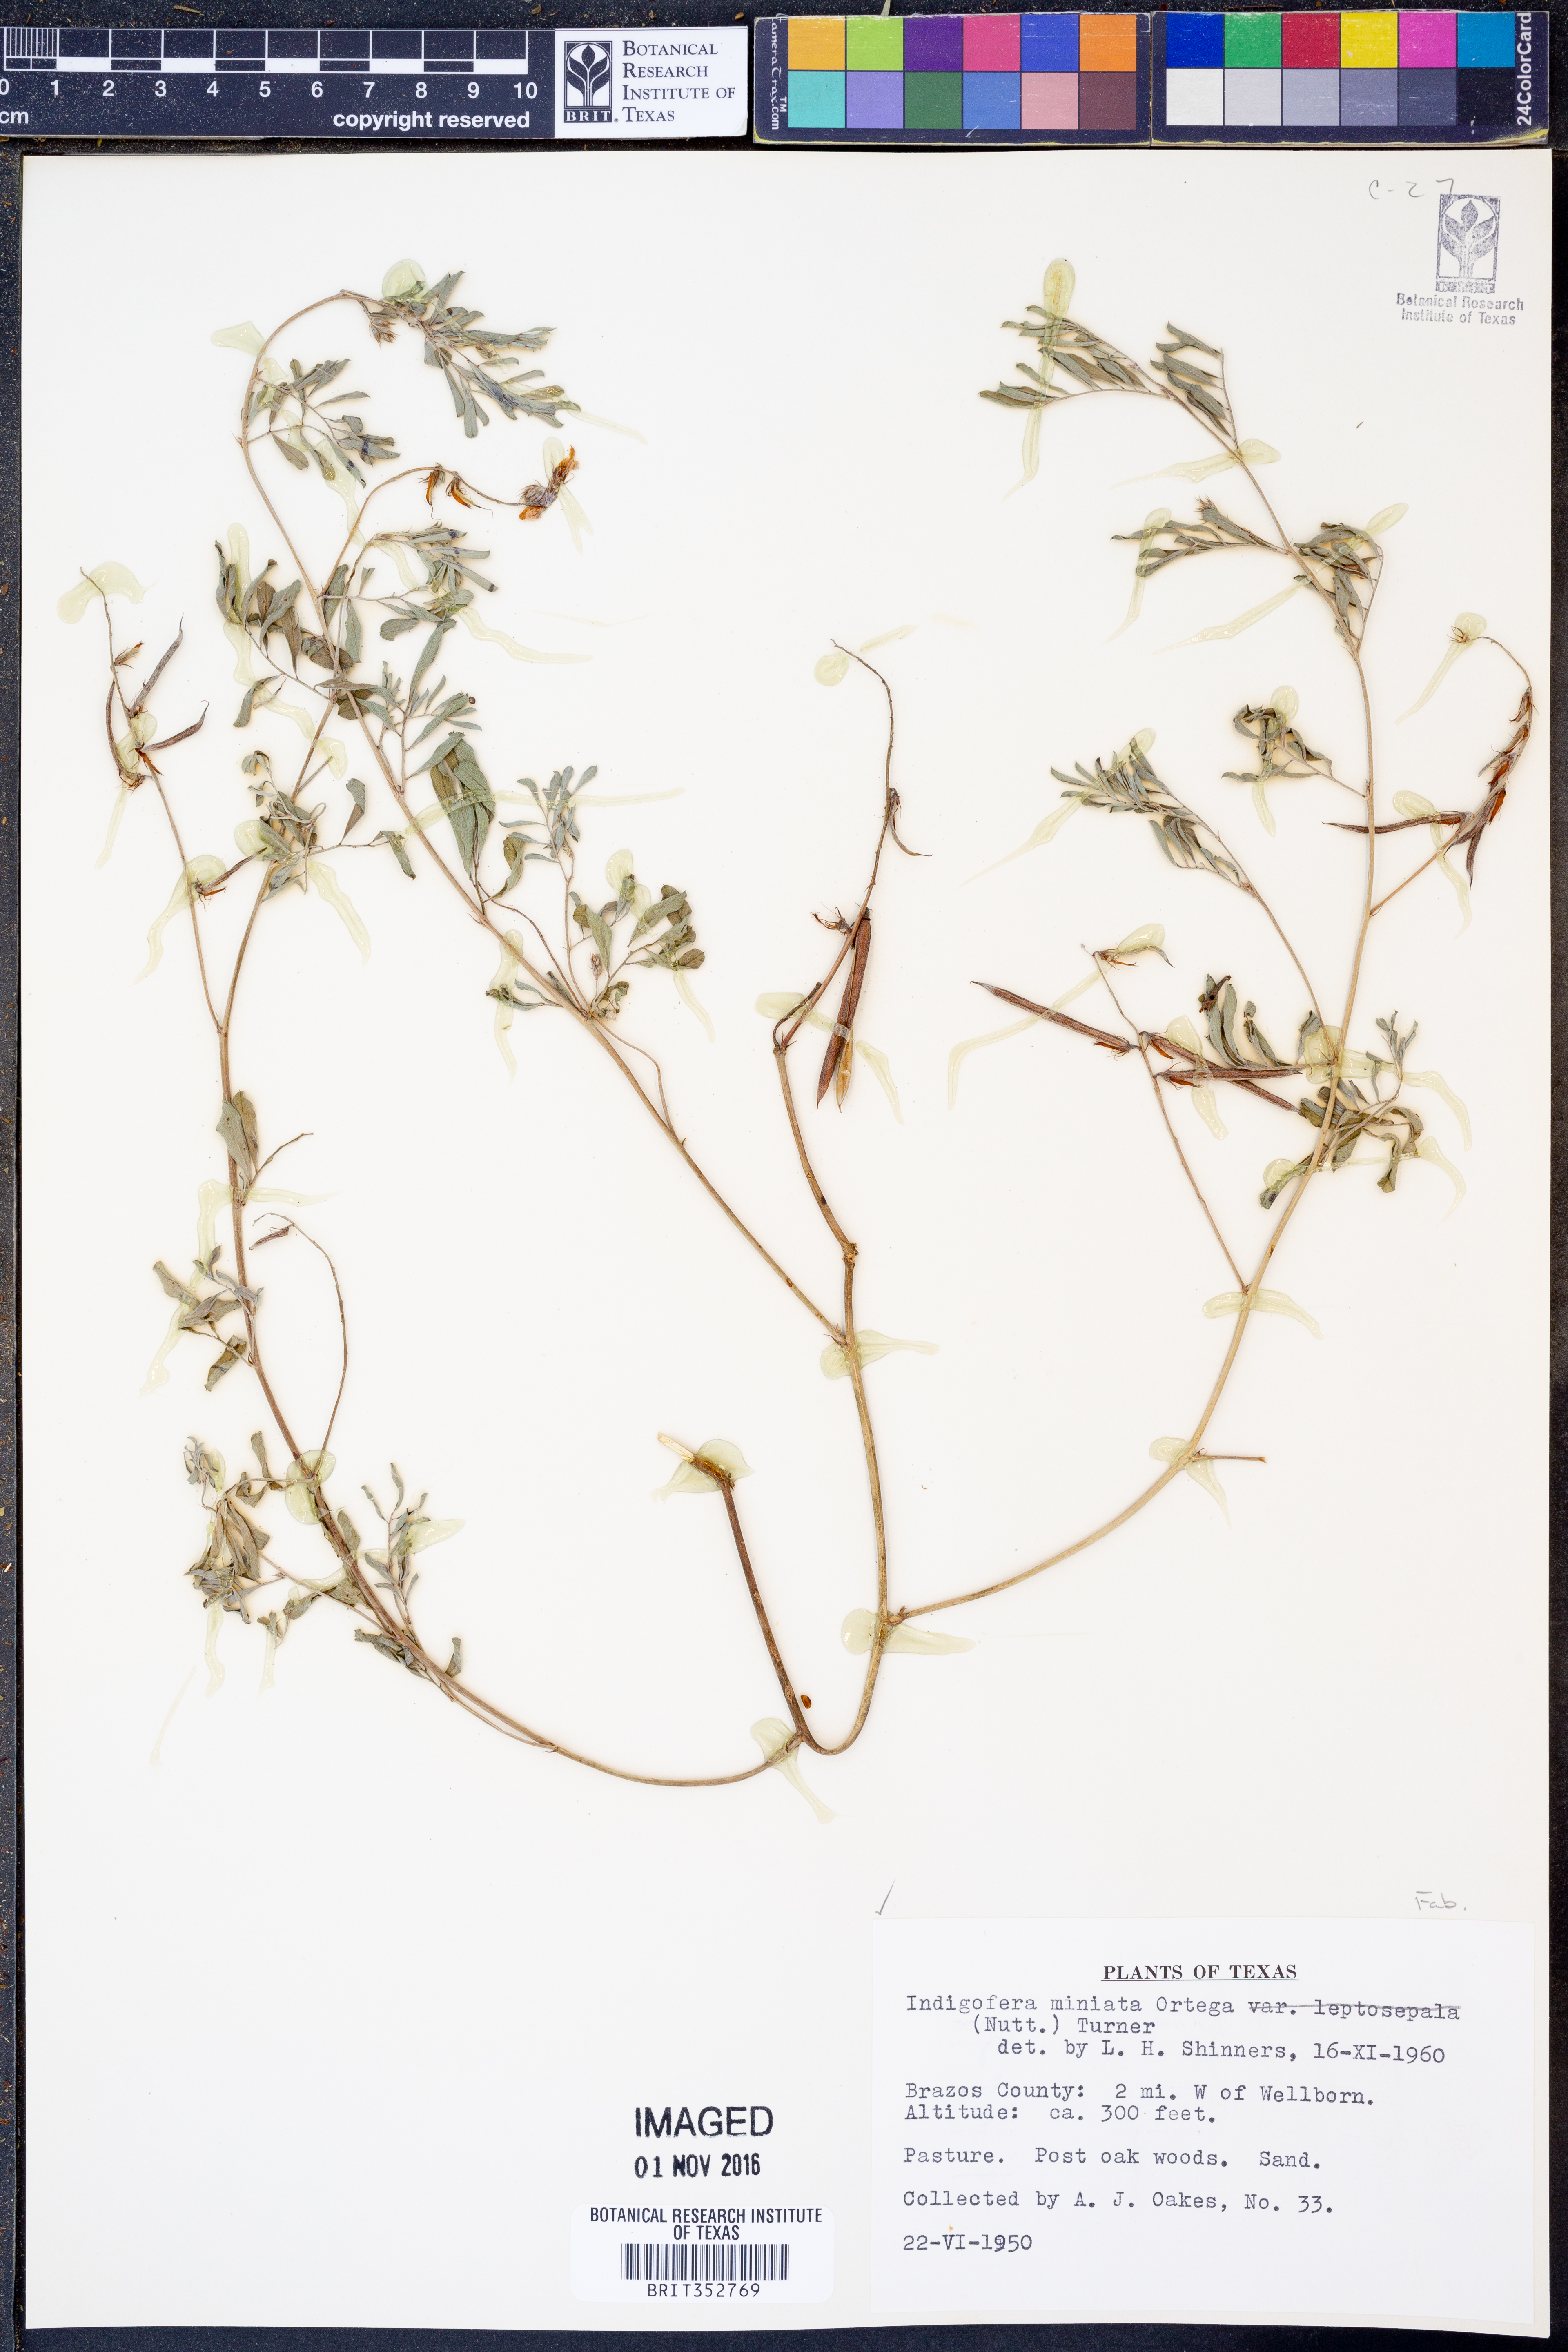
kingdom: Plantae
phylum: Tracheophyta
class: Magnoliopsida
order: Fabales
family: Fabaceae
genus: Indigofera
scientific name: Indigofera miniata
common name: Coast indigo
